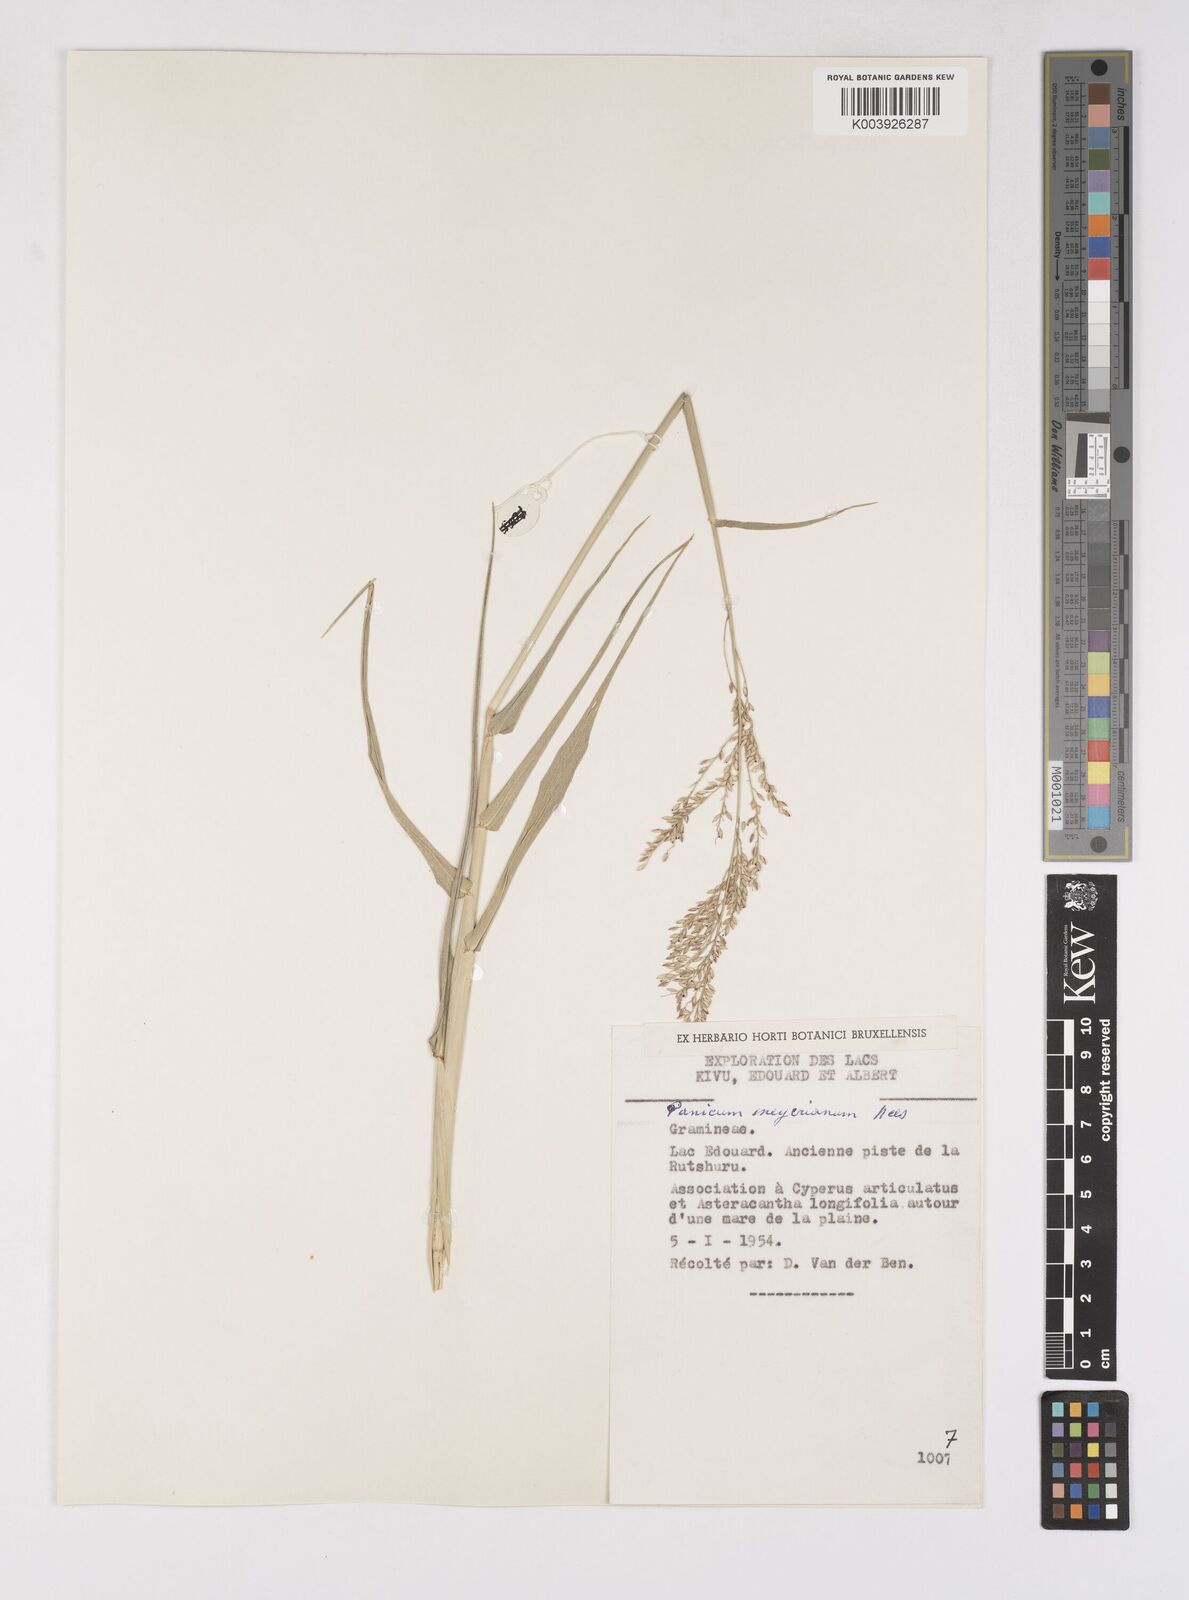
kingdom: Plantae
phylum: Tracheophyta
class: Liliopsida
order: Poales
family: Poaceae
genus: Eriochloa
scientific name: Eriochloa meyeriana
